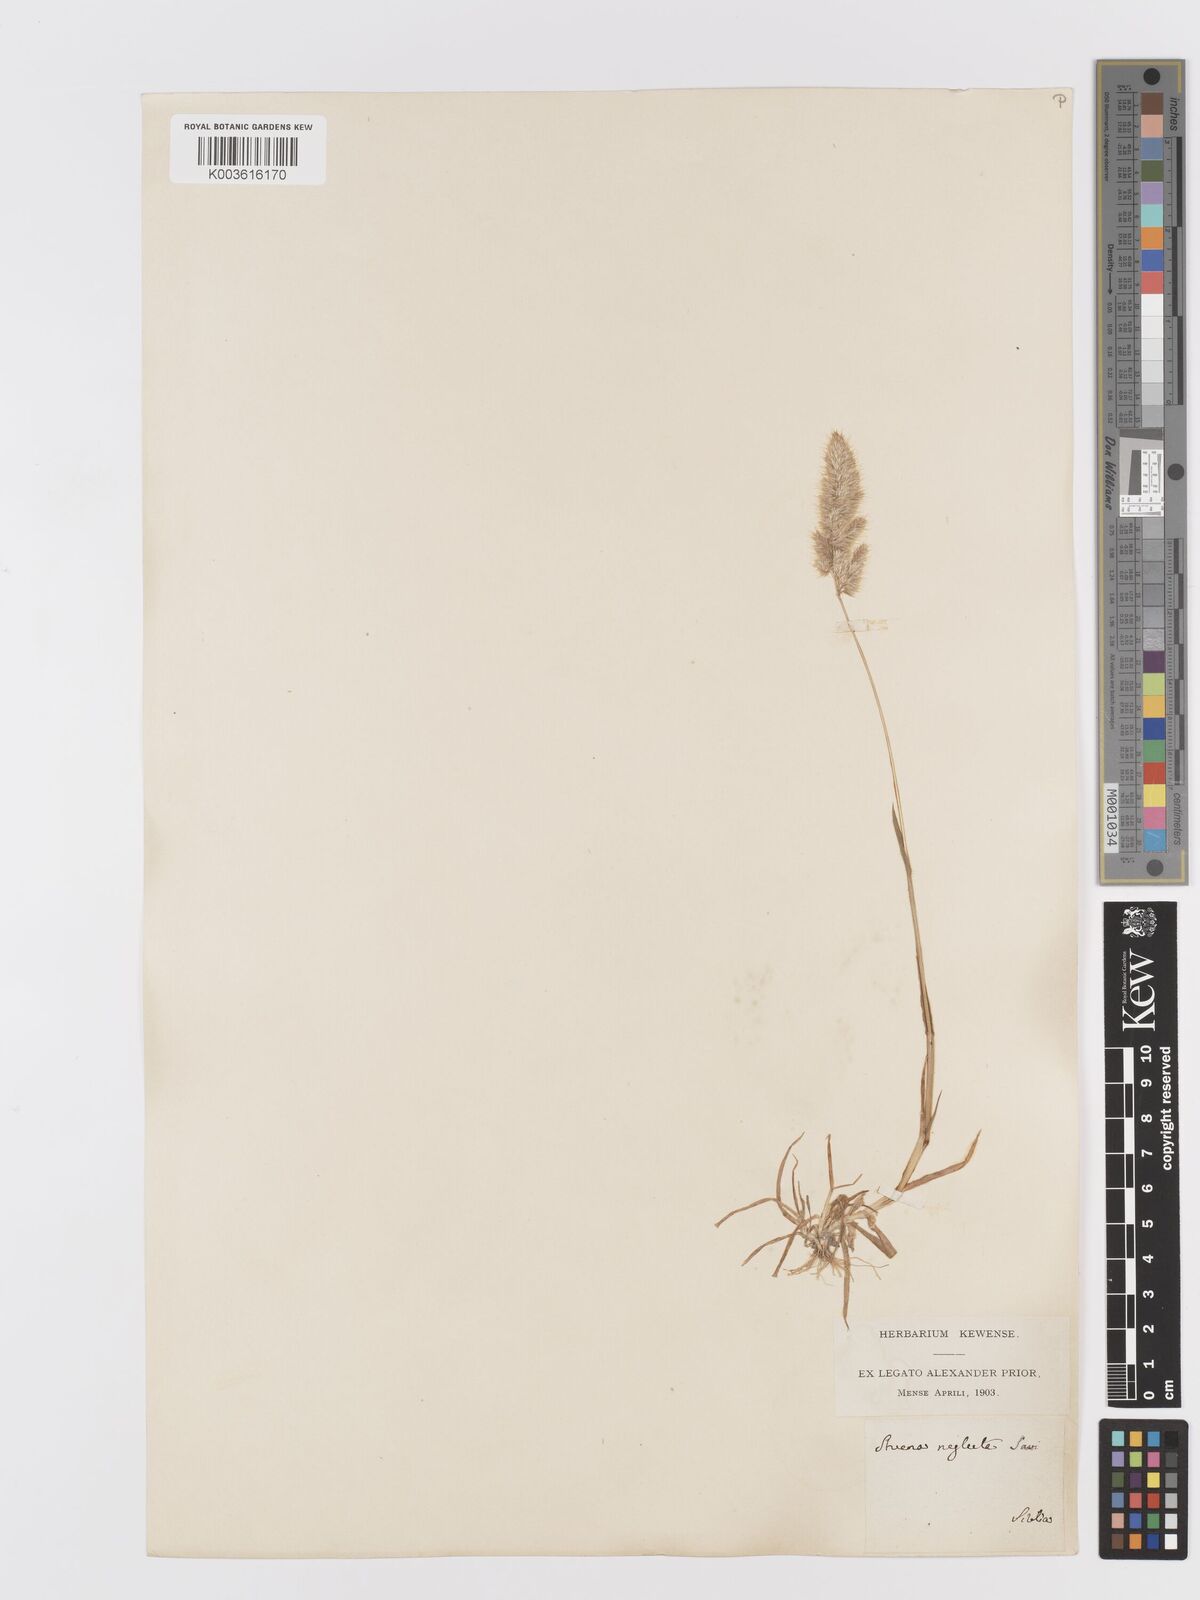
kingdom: Plantae
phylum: Tracheophyta
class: Liliopsida
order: Poales
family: Poaceae
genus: Trisetaria
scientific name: Trisetaria panicea
